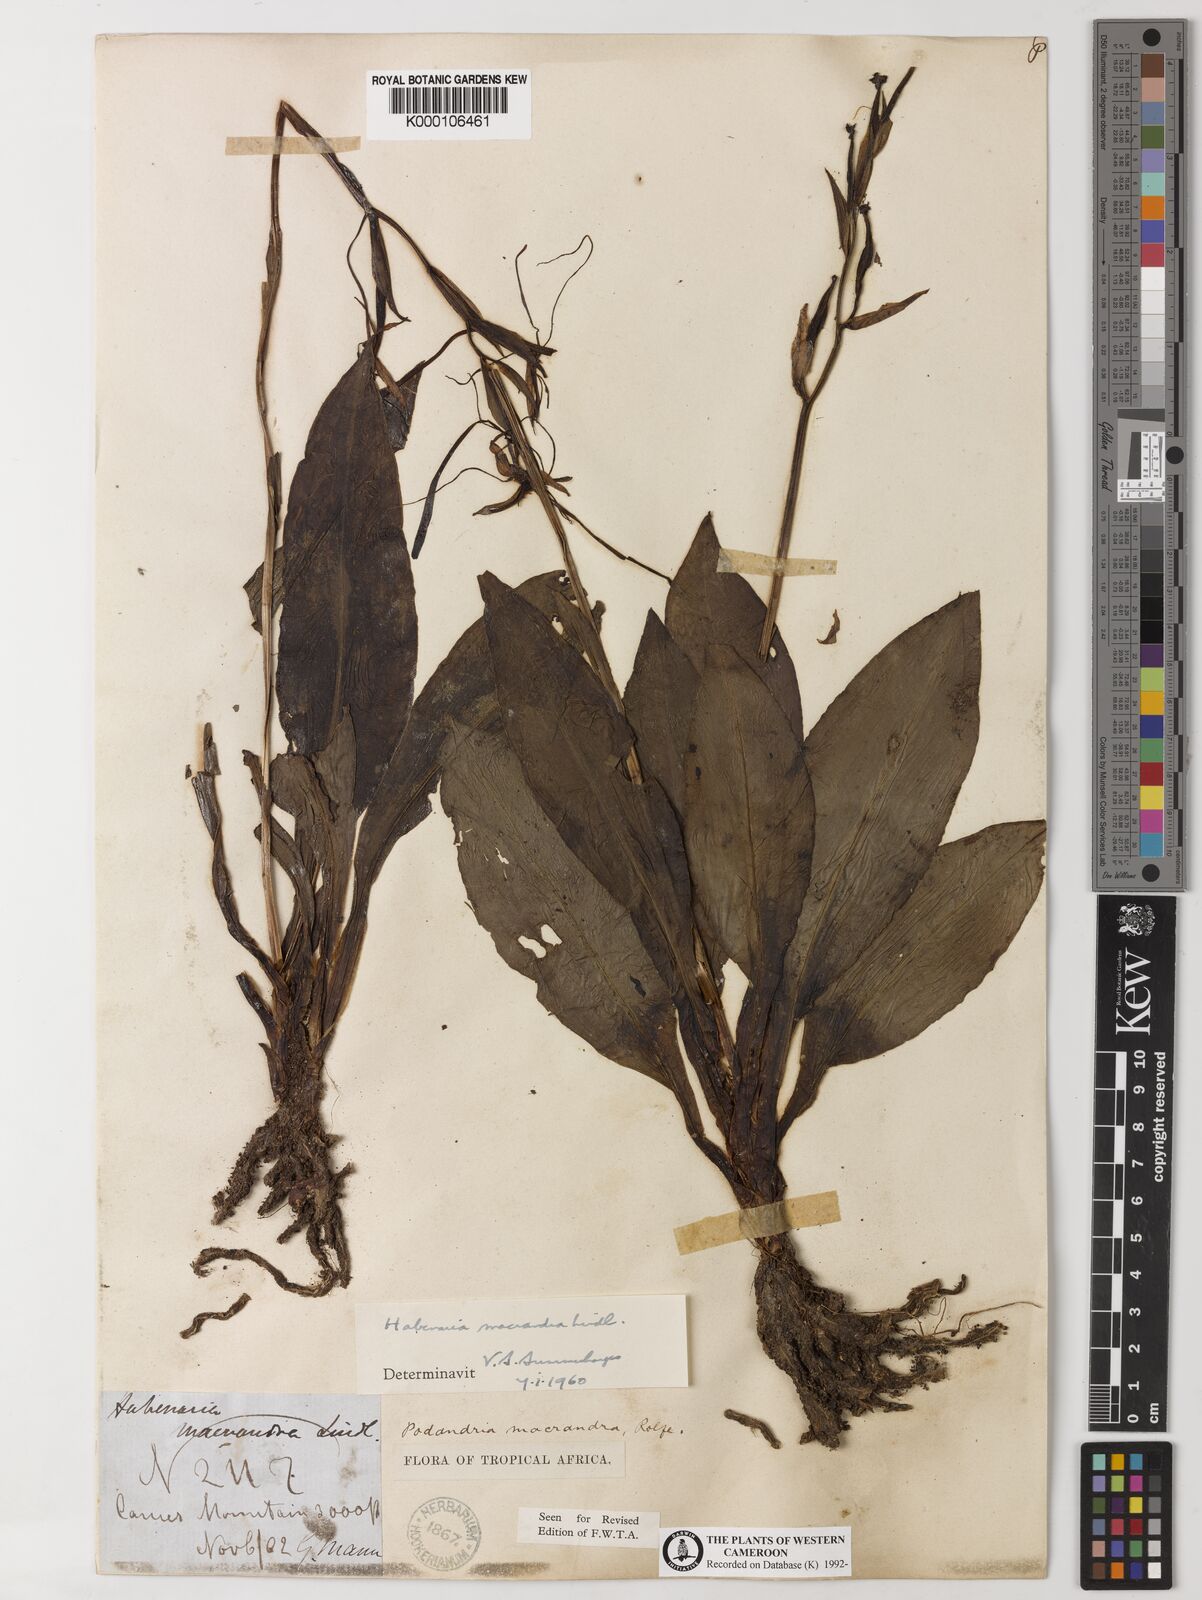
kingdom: Plantae
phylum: Tracheophyta
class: Liliopsida
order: Asparagales
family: Orchidaceae
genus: Habenaria
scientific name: Habenaria macrandra
